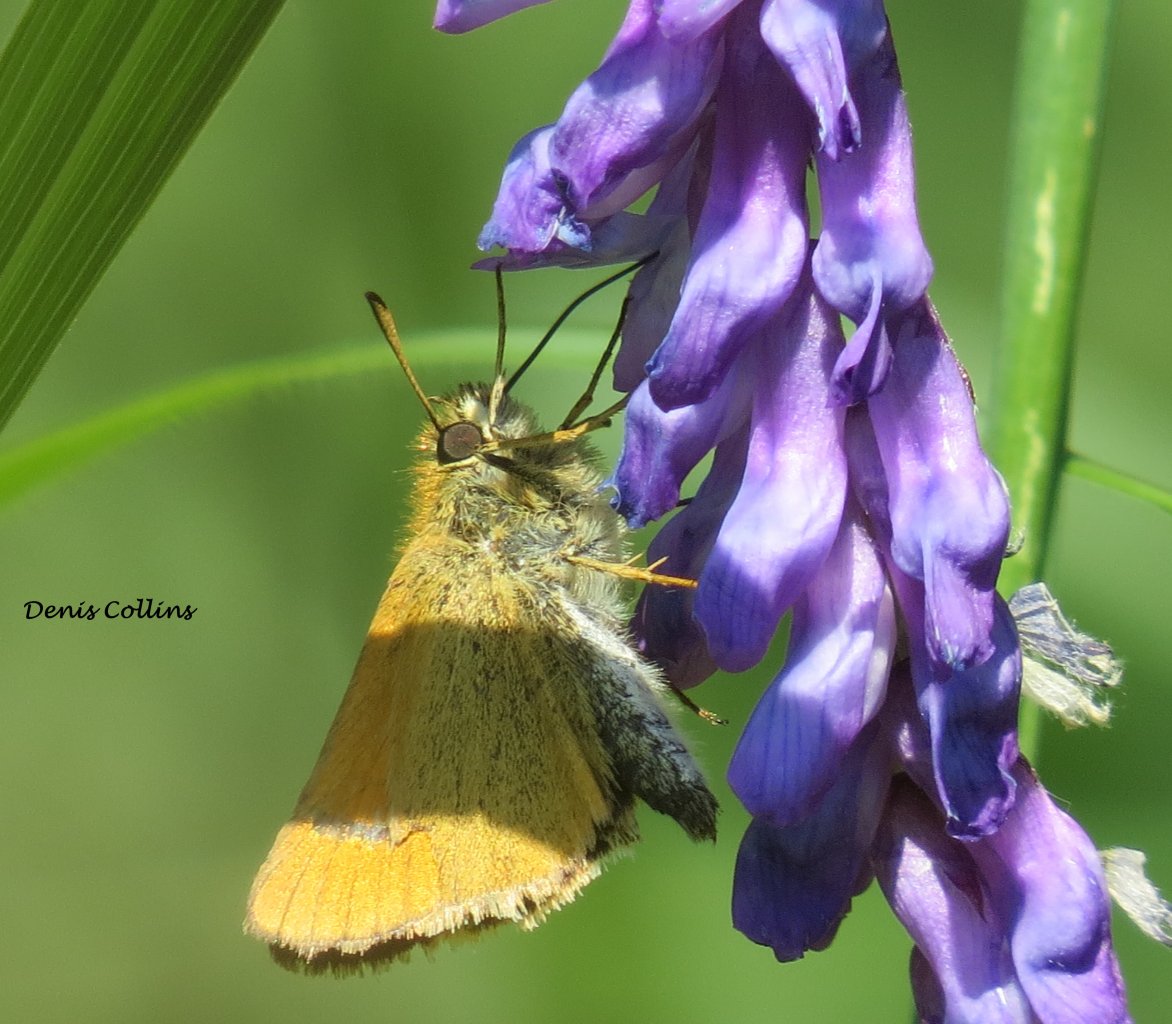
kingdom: Animalia
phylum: Arthropoda
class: Insecta
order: Lepidoptera
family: Hesperiidae
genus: Atrytone
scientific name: Atrytone delaware
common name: Delaware Skipper
